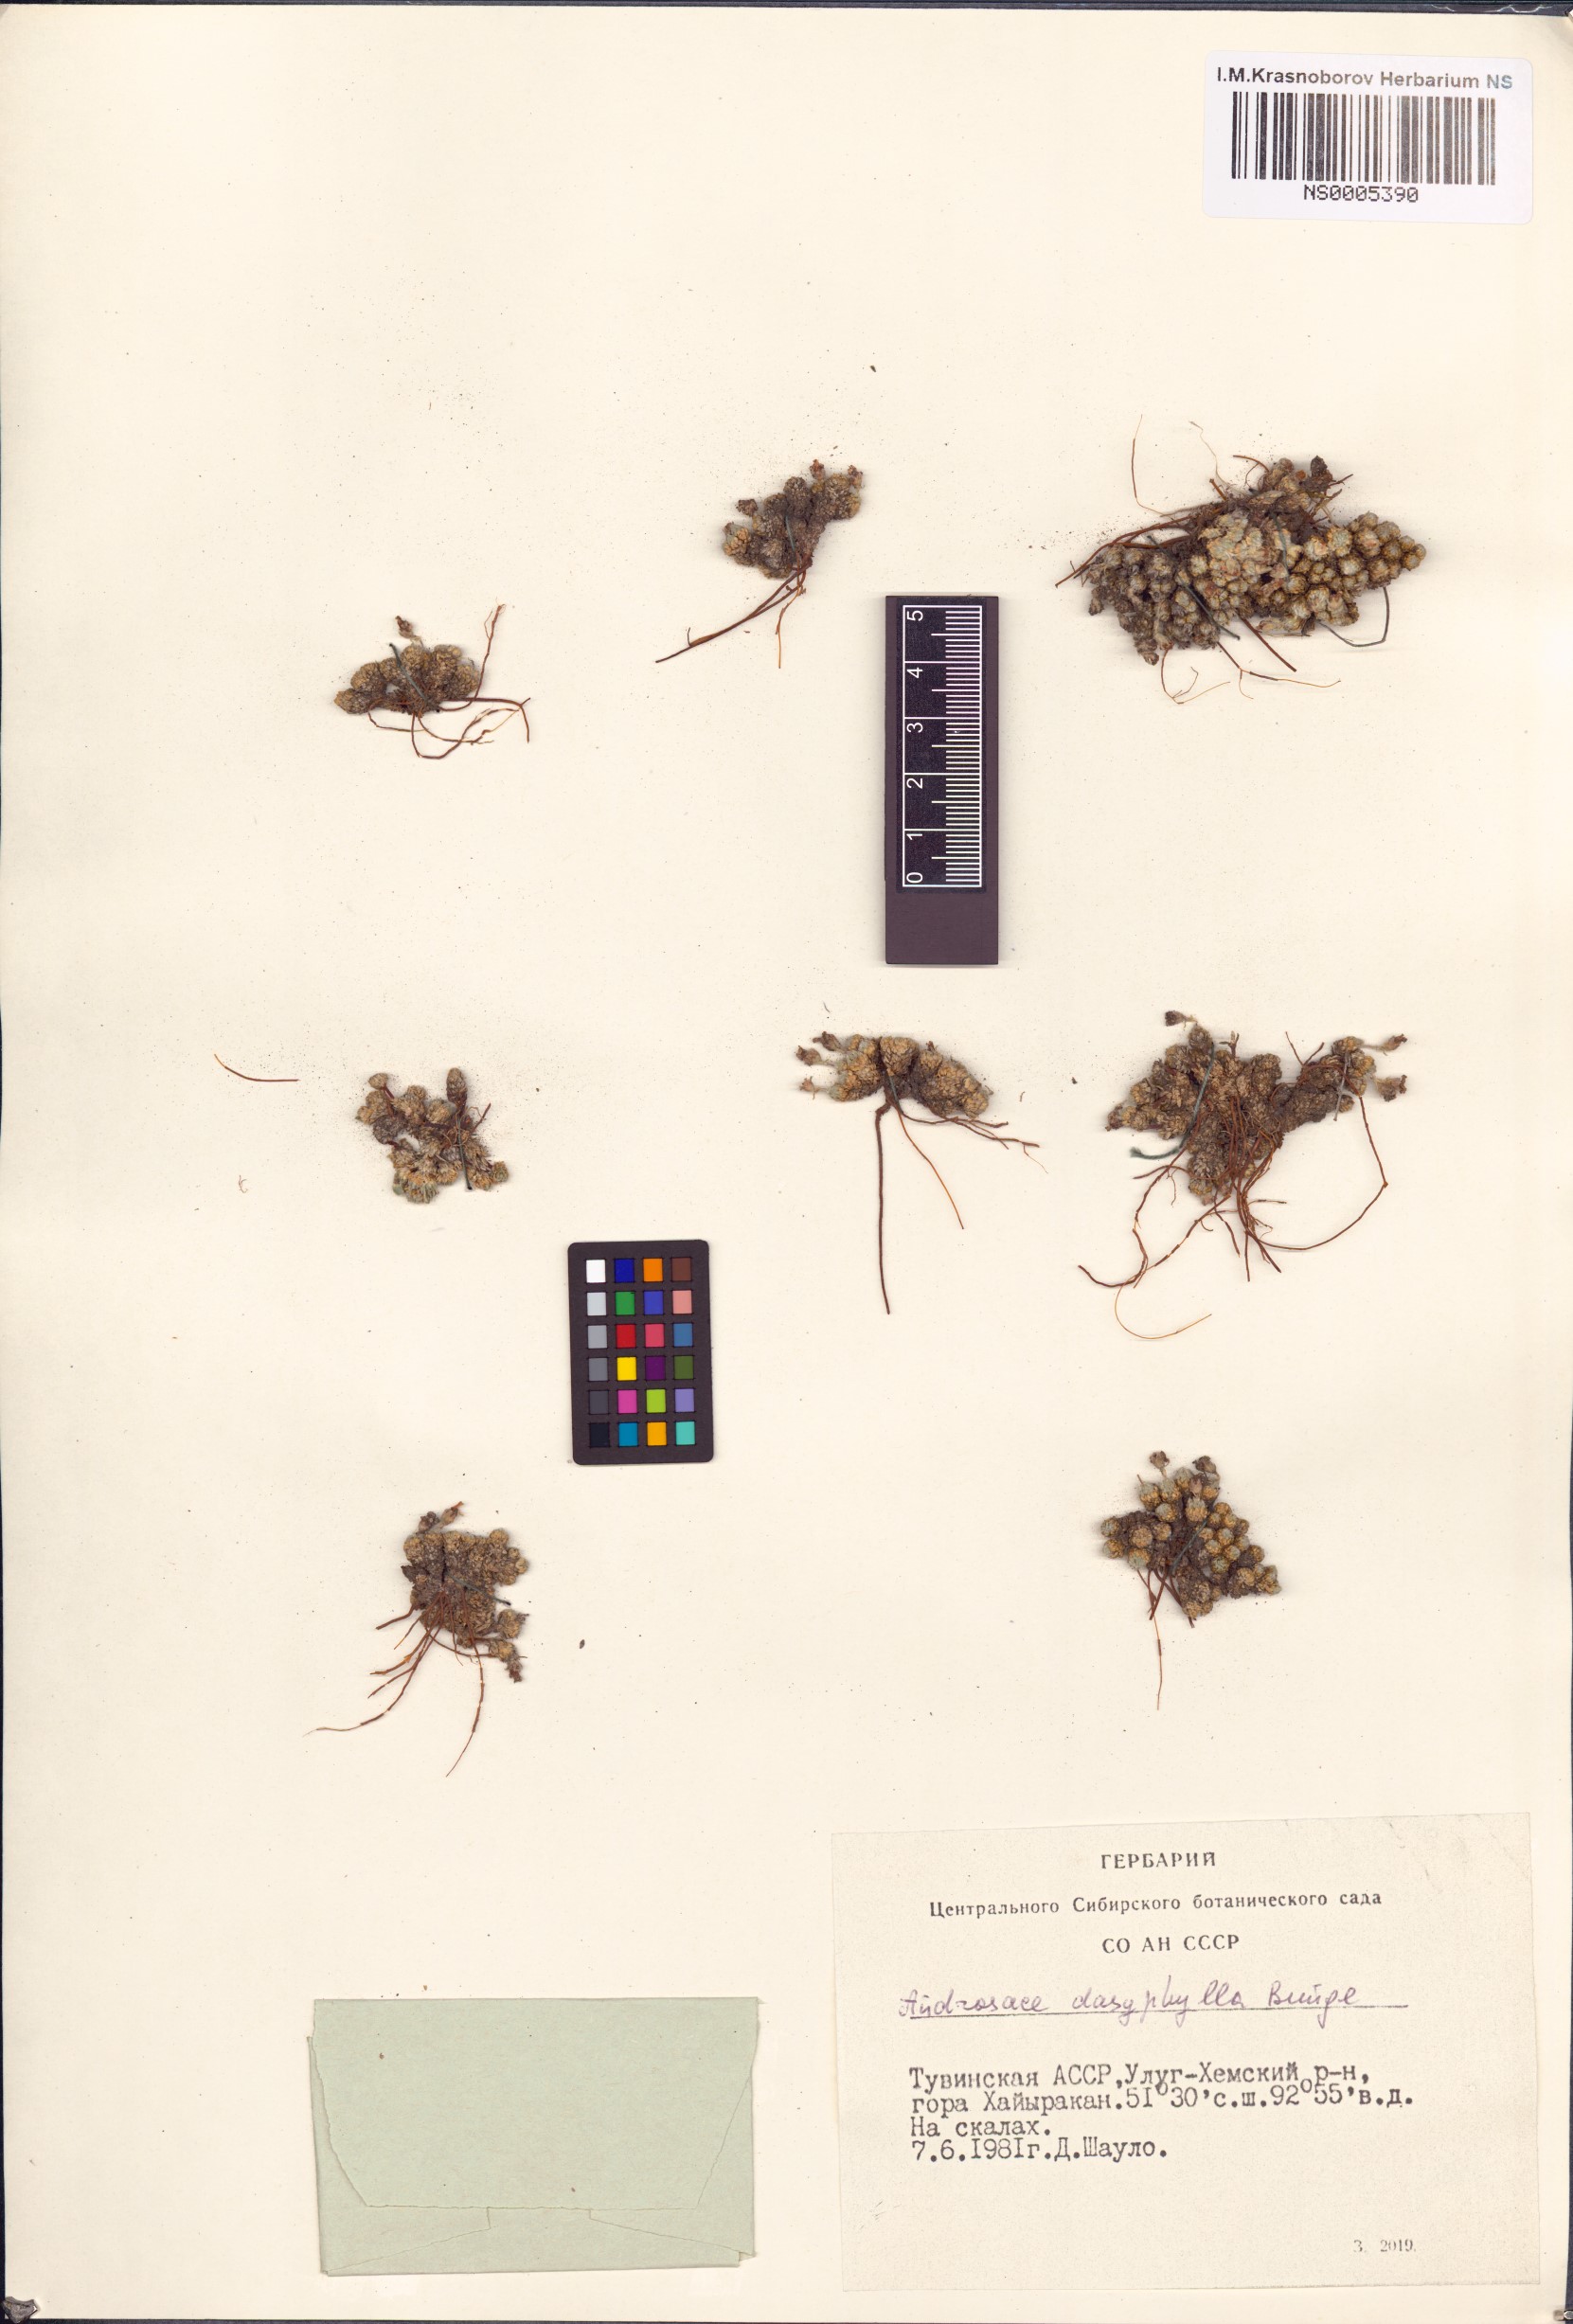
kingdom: Plantae
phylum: Tracheophyta
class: Magnoliopsida
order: Ericales
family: Primulaceae
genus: Androsace
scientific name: Androsace dasyphylla
